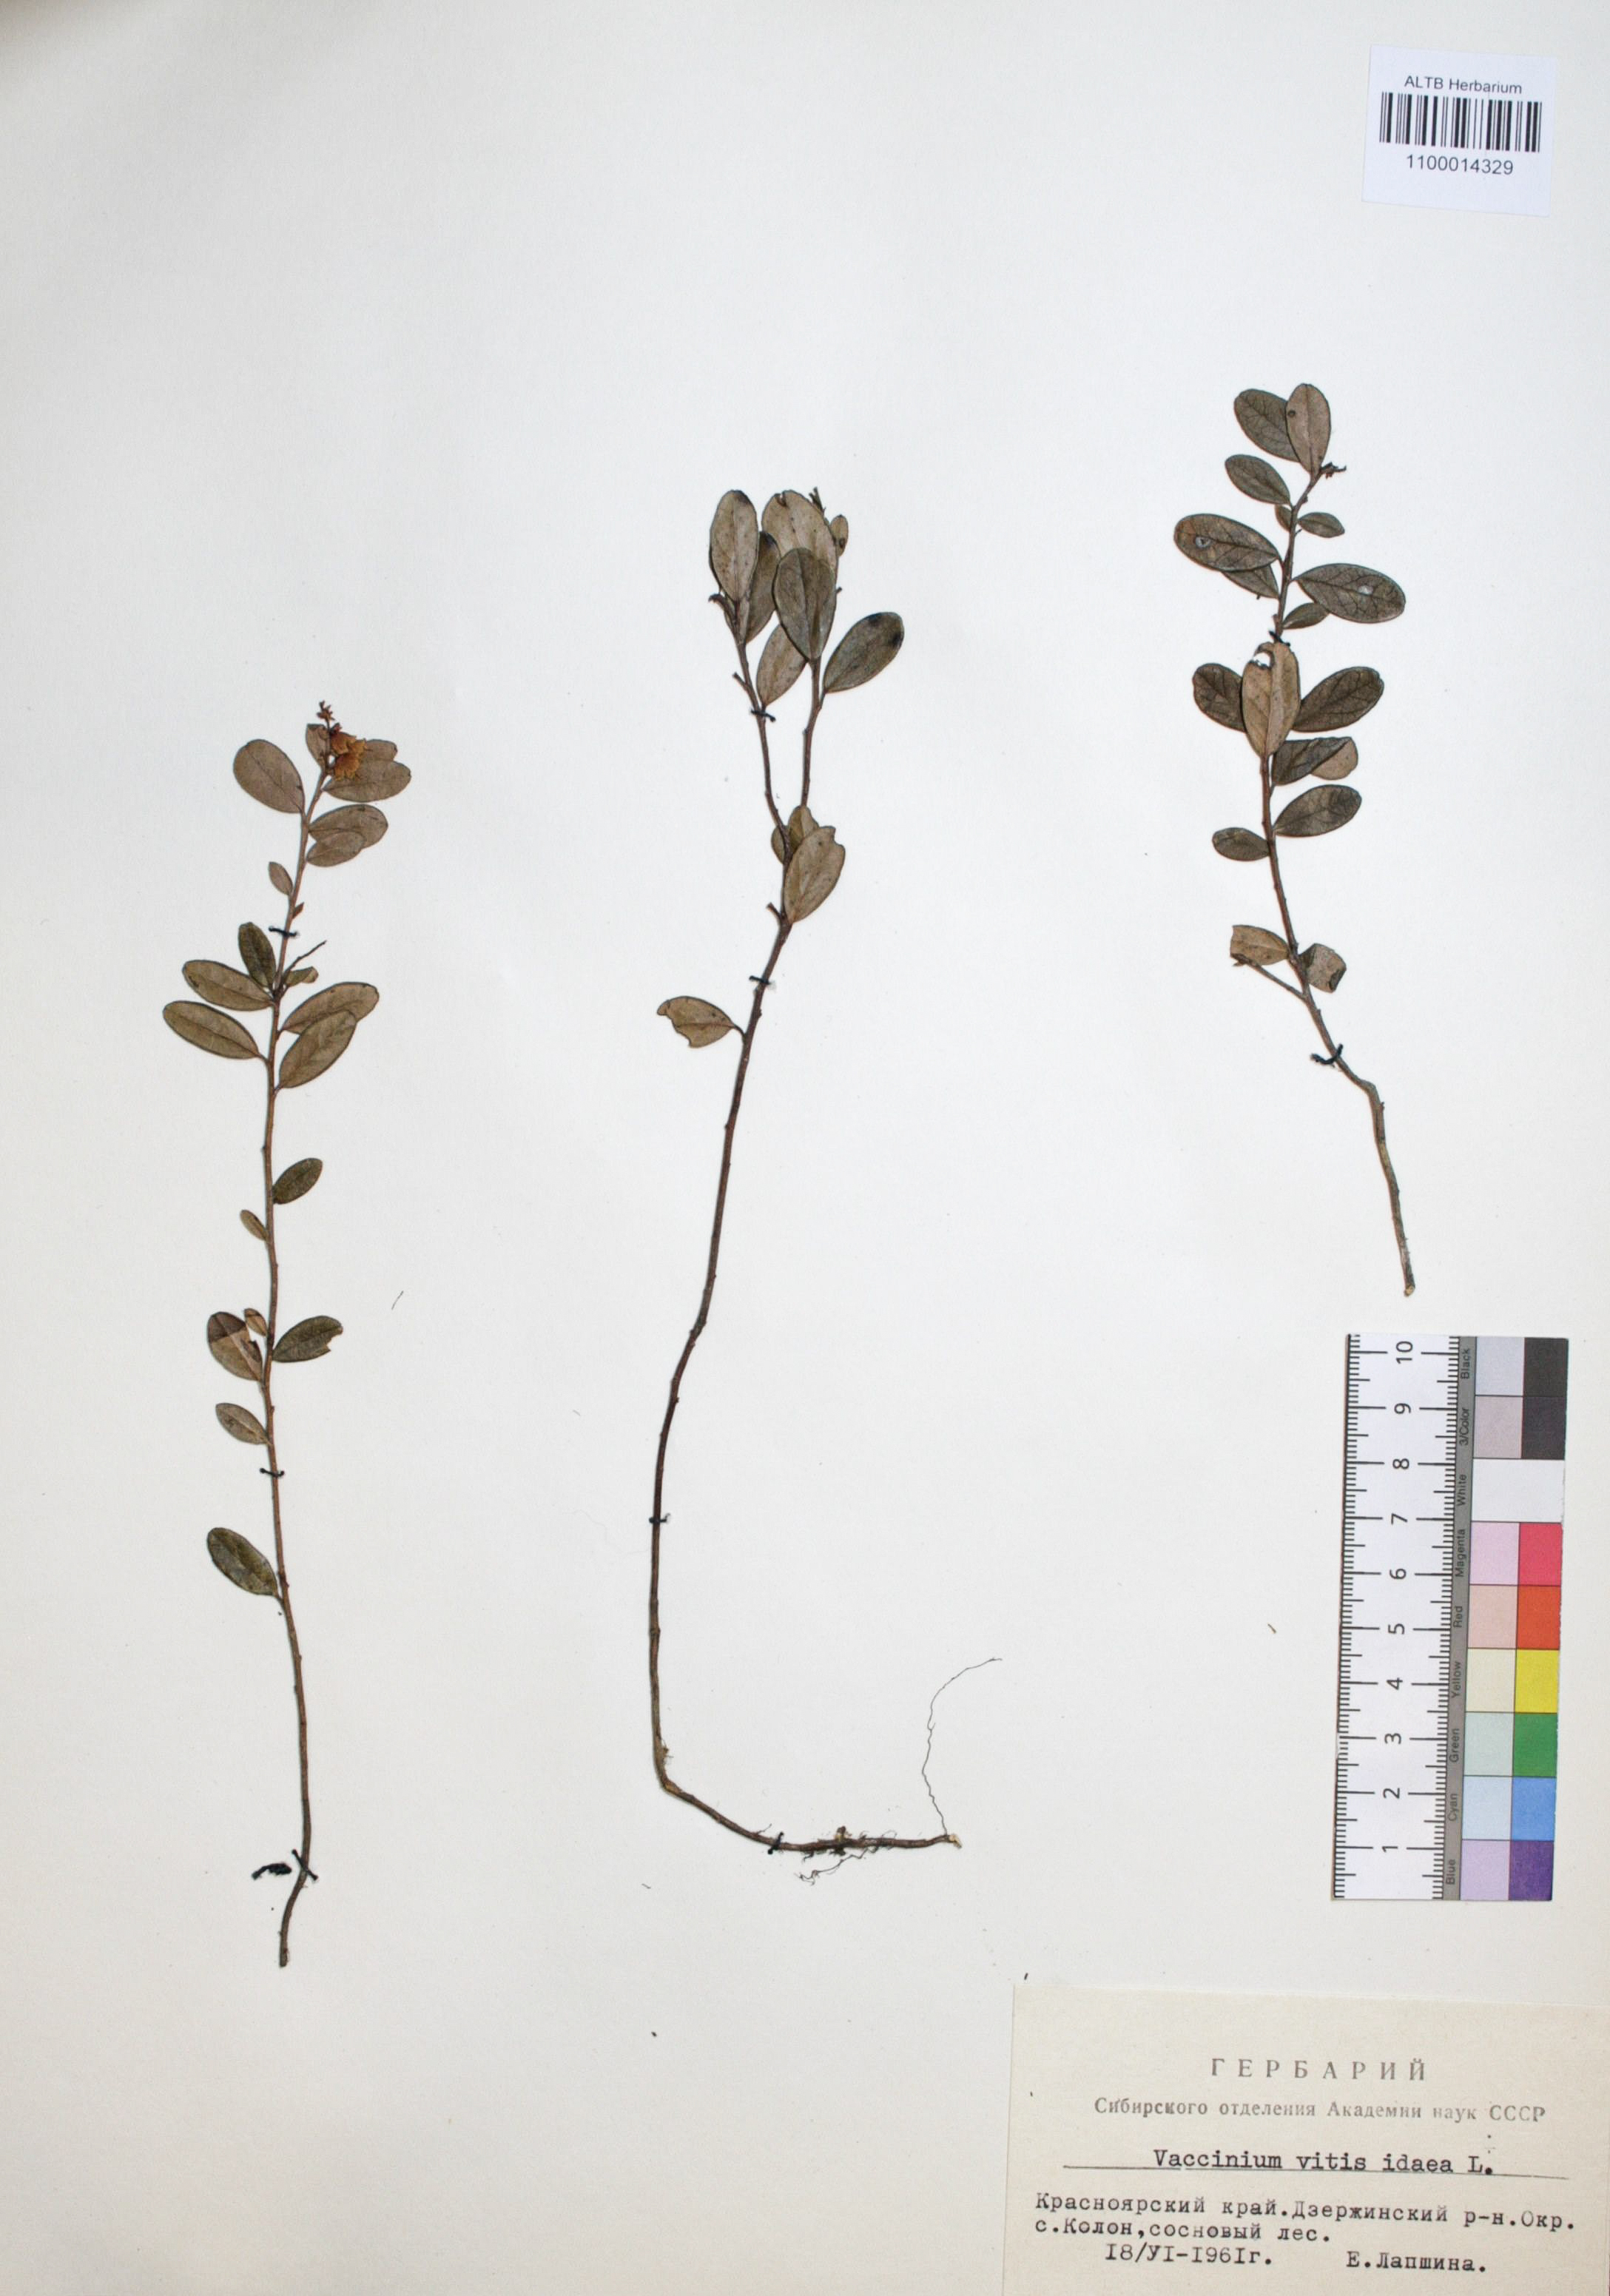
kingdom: Plantae
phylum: Tracheophyta
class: Magnoliopsida
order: Ericales
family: Ericaceae
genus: Vaccinium
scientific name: Vaccinium vitis-idaea
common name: Cowberry
